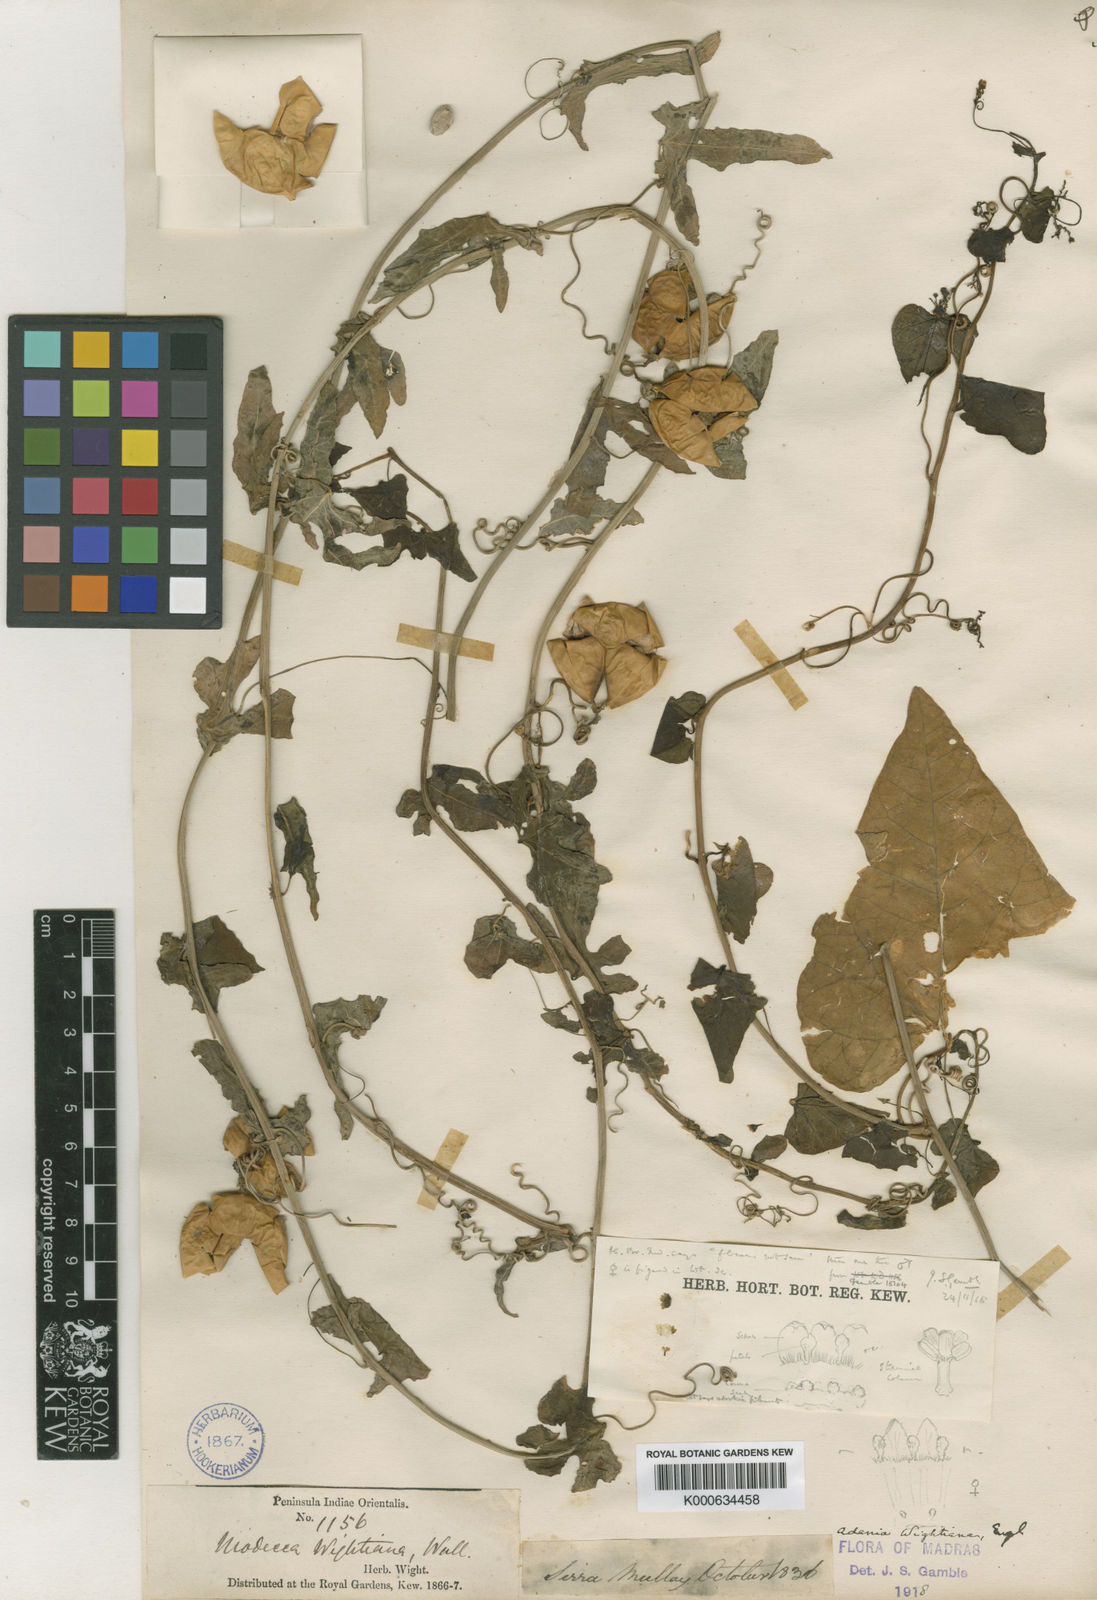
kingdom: Plantae
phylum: Tracheophyta
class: Magnoliopsida
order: Malpighiales
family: Passifloraceae
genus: Adenia
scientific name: Adenia wightiana
